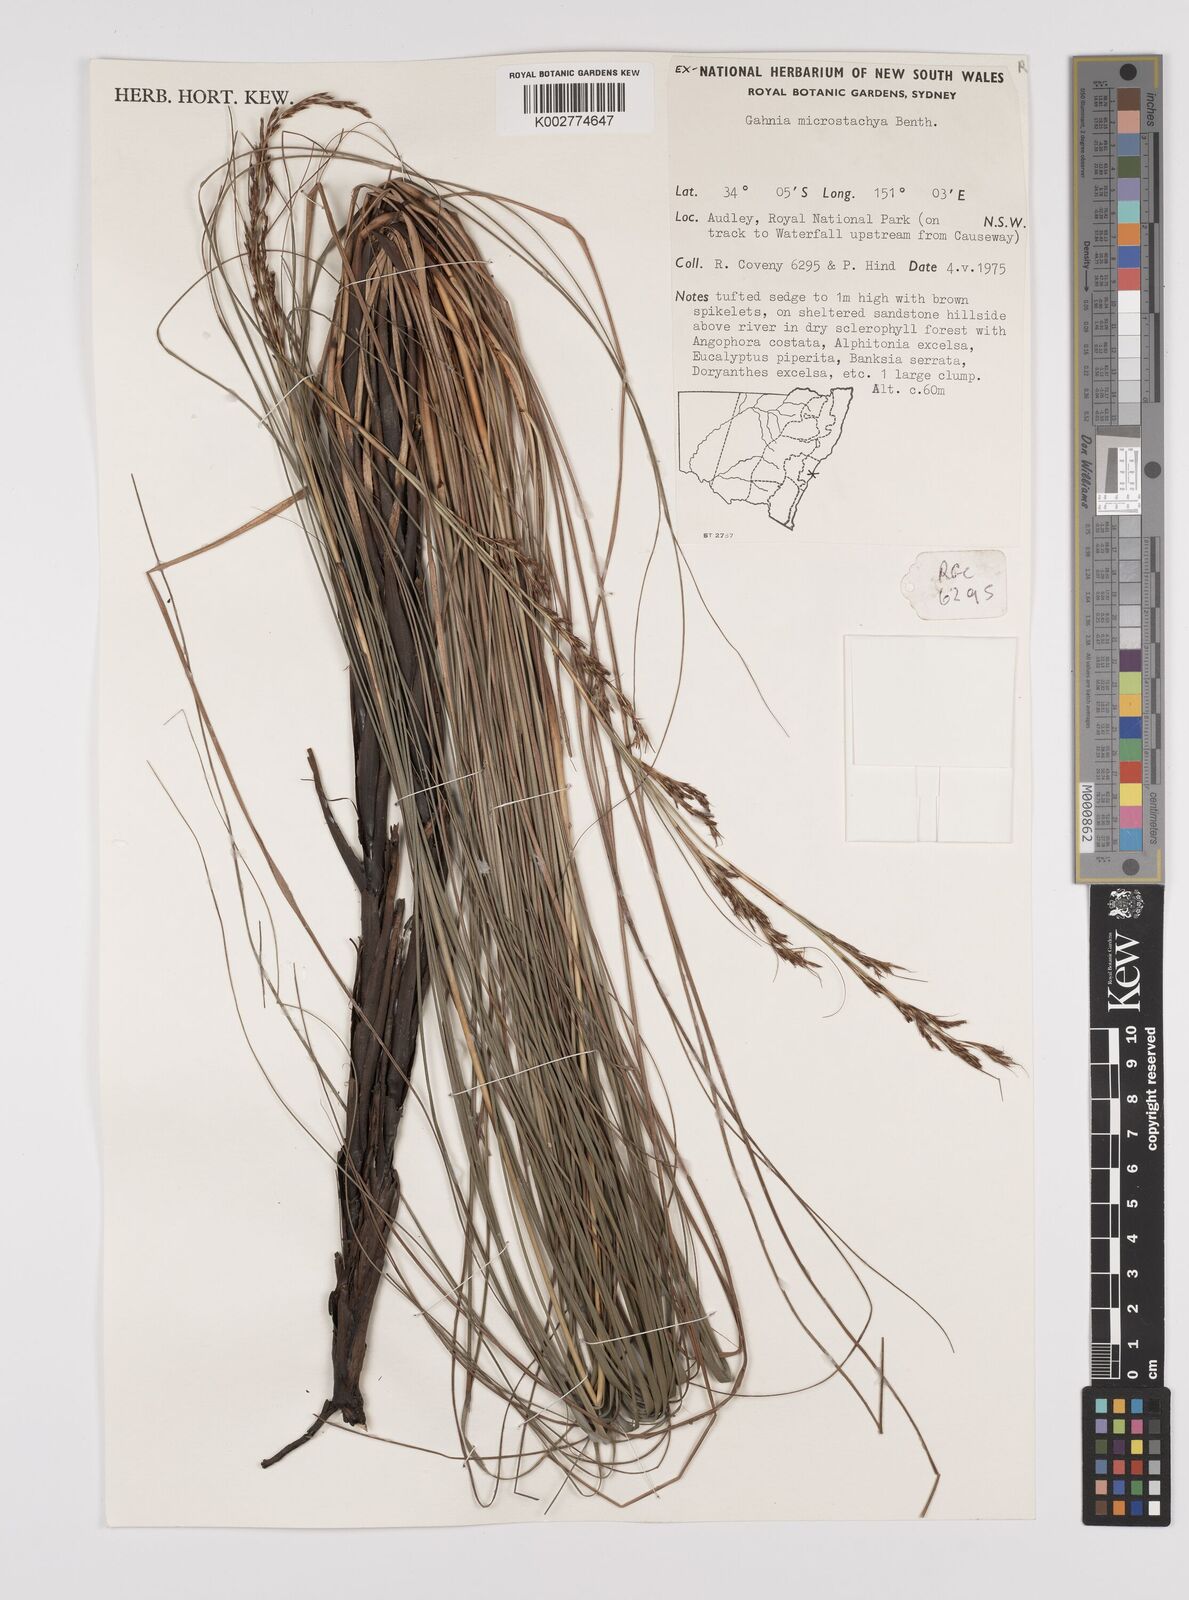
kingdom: Plantae
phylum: Tracheophyta
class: Liliopsida
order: Poales
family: Cyperaceae
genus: Gahnia
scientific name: Gahnia microstachya
